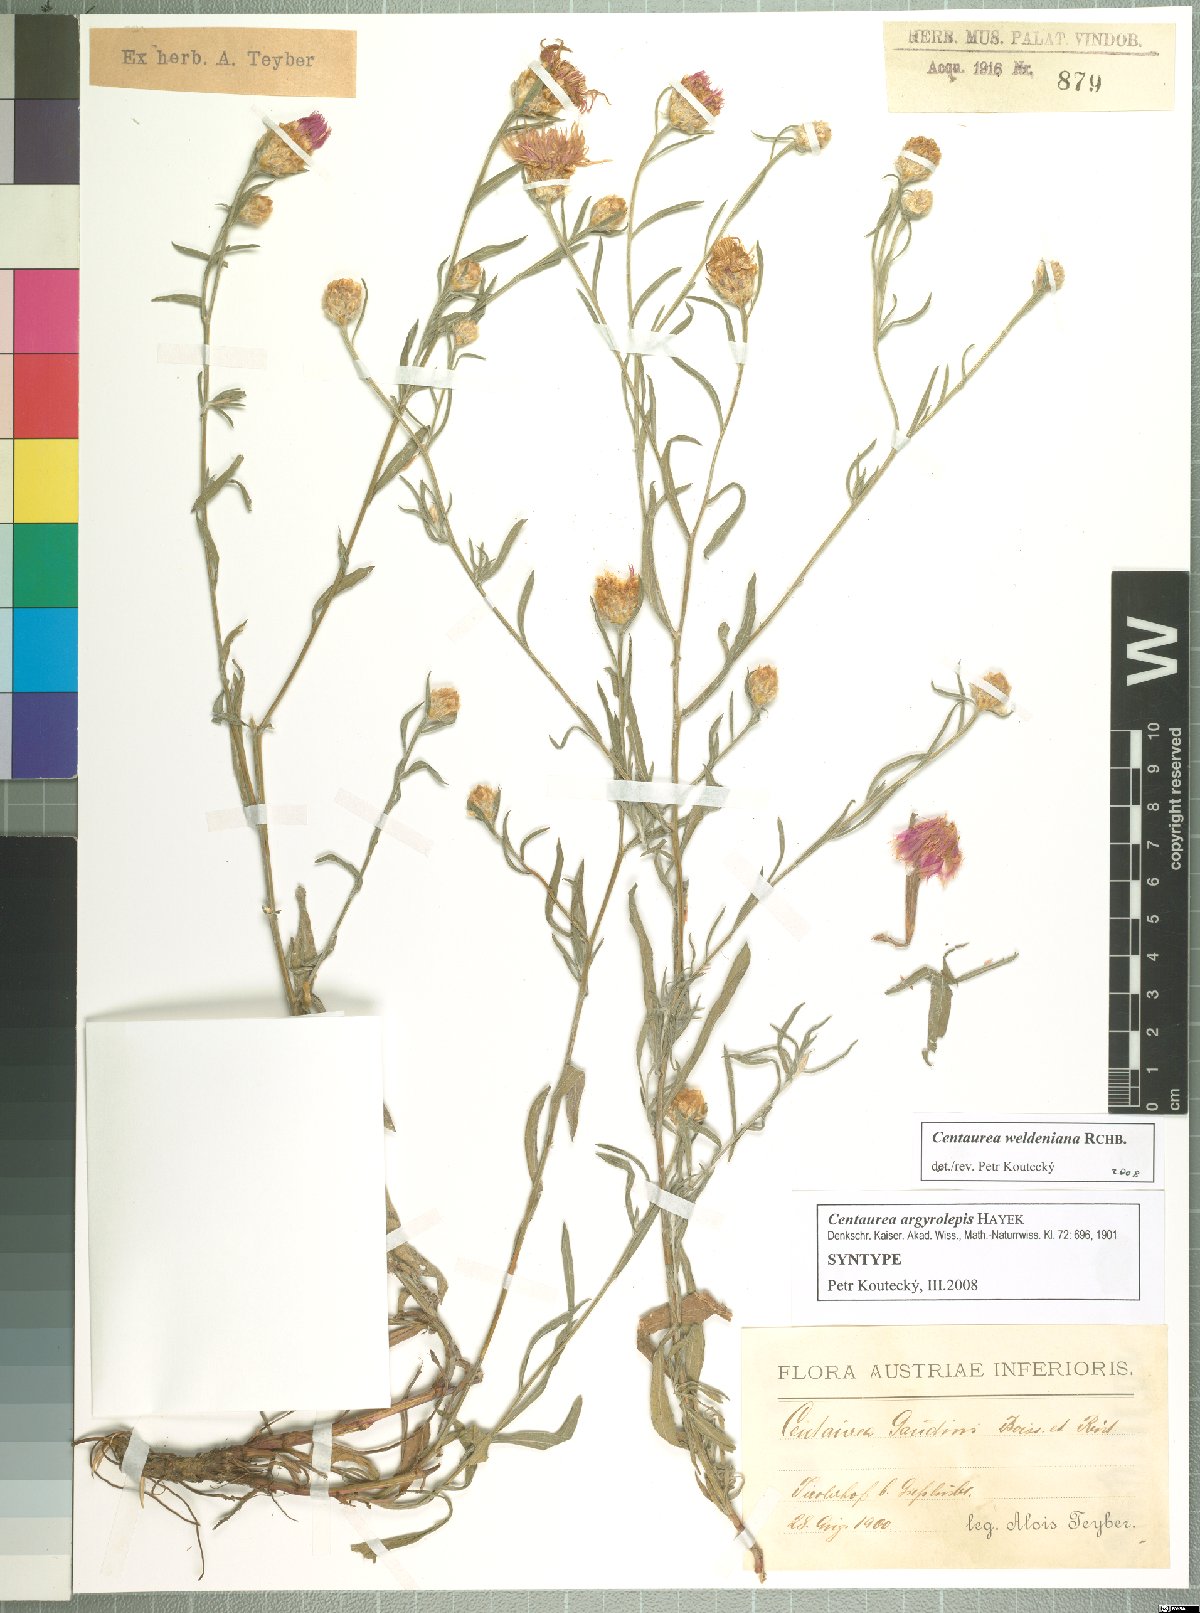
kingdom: Plantae
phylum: Tracheophyta
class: Magnoliopsida
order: Asterales
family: Asteraceae
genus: Centaurea
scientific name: Centaurea jacea
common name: Brown knapweed
